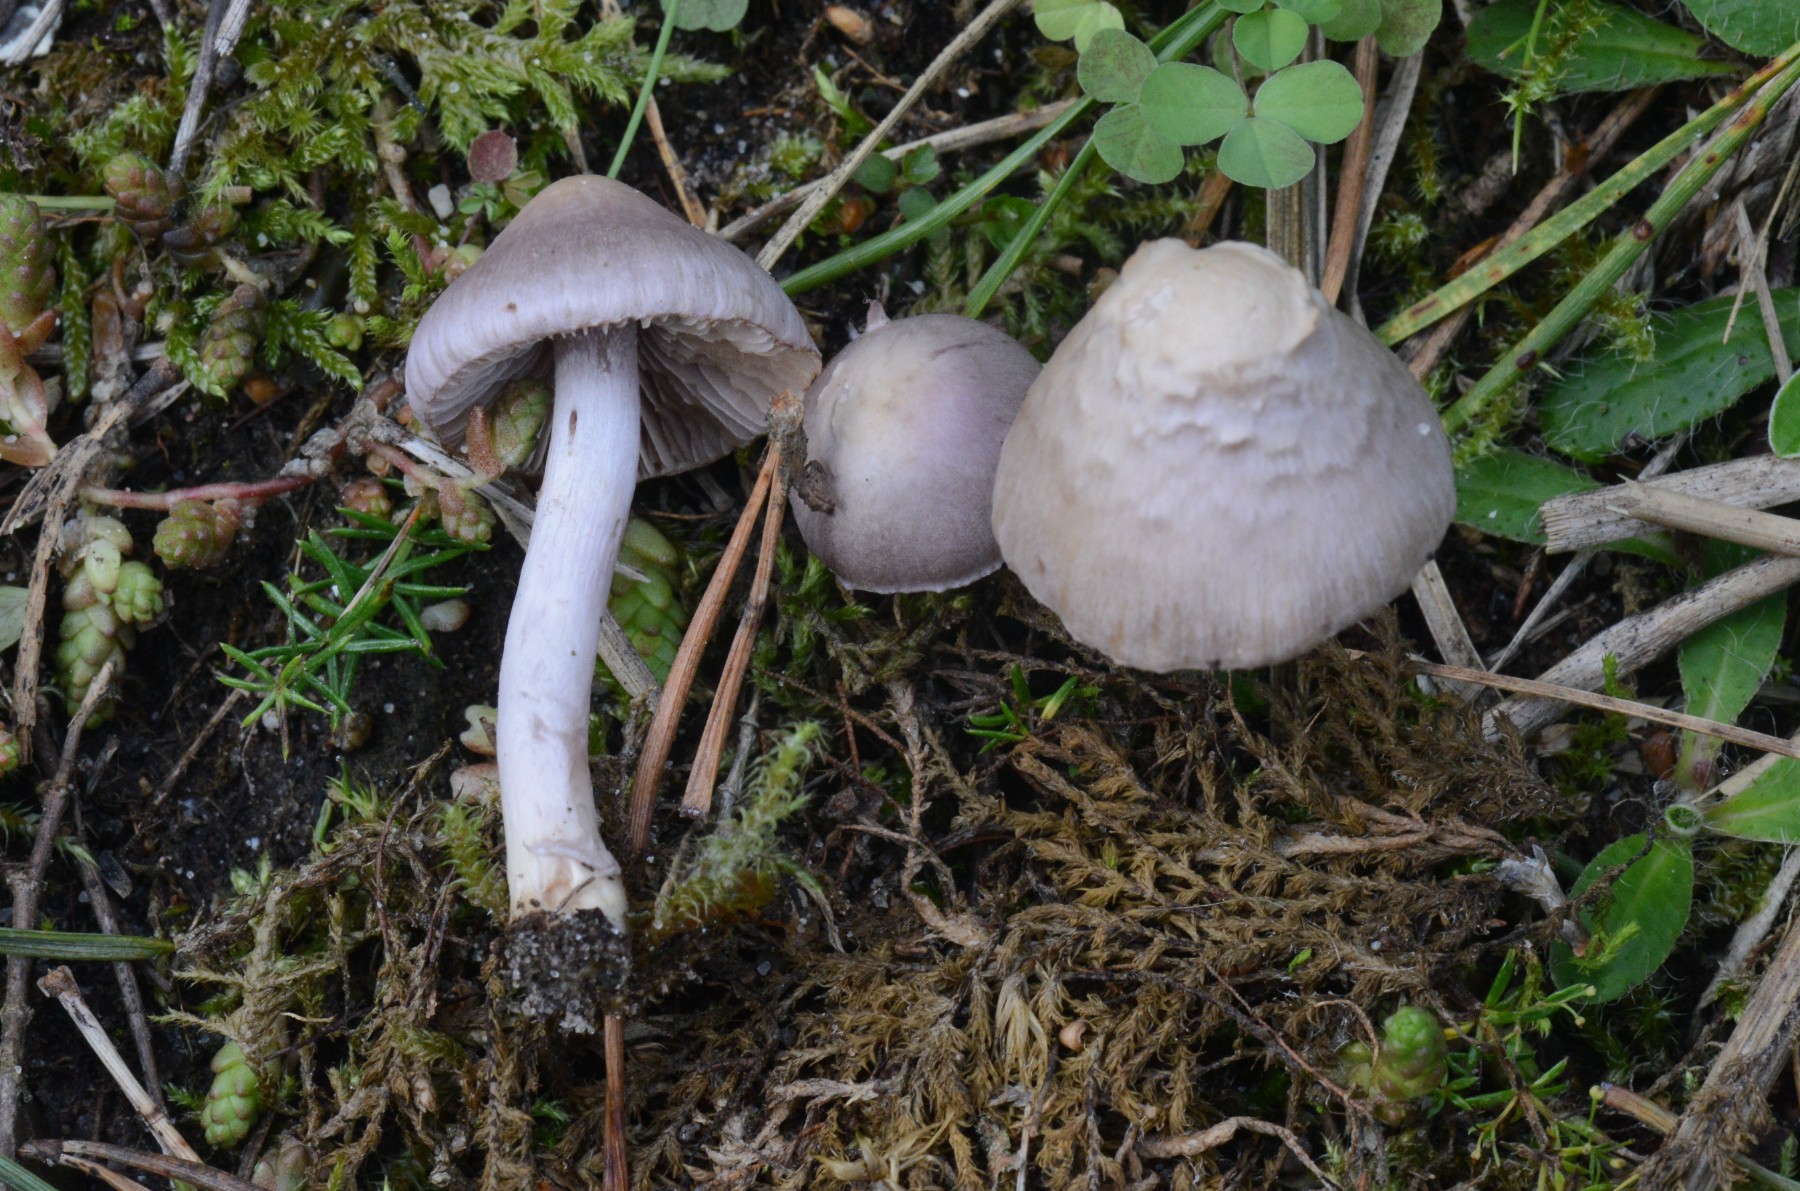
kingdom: Fungi
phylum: Basidiomycota
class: Agaricomycetes
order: Agaricales
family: Inocybaceae
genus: Inocybe
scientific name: Inocybe geophylla
